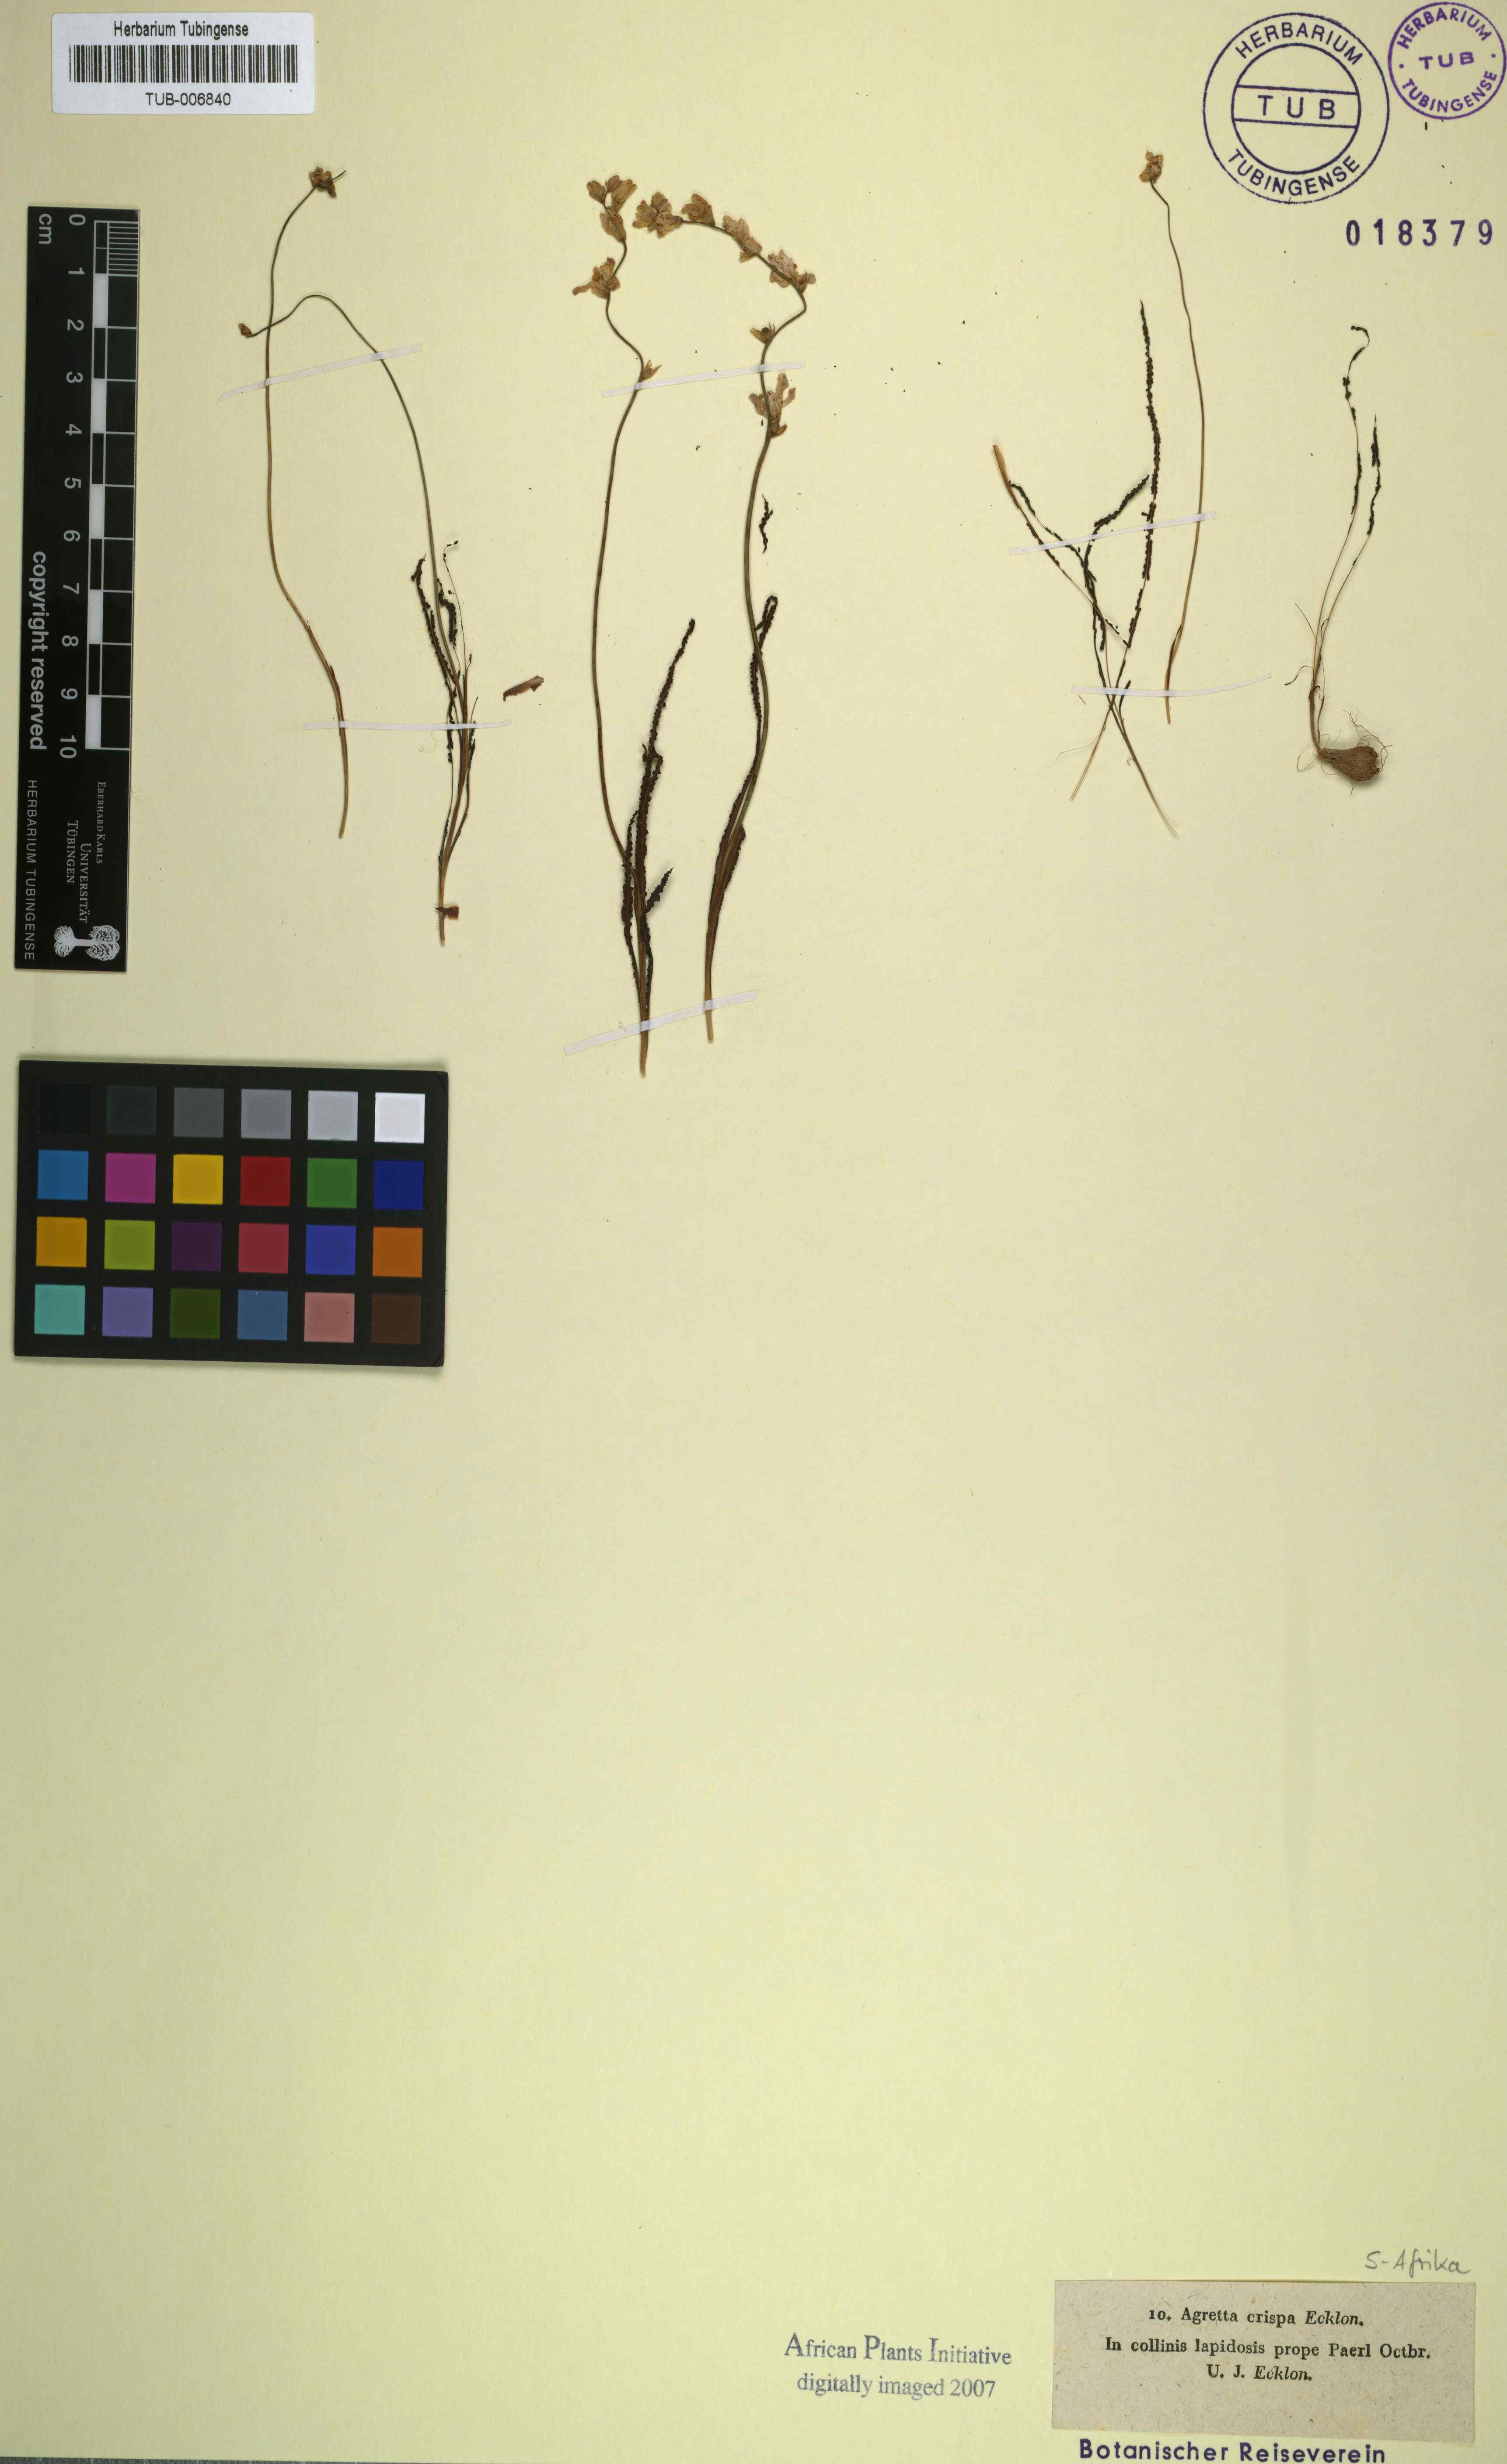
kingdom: Plantae
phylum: Tracheophyta
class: Liliopsida
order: Asparagales
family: Iridaceae
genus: Tritonia
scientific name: Tritonia undulata
